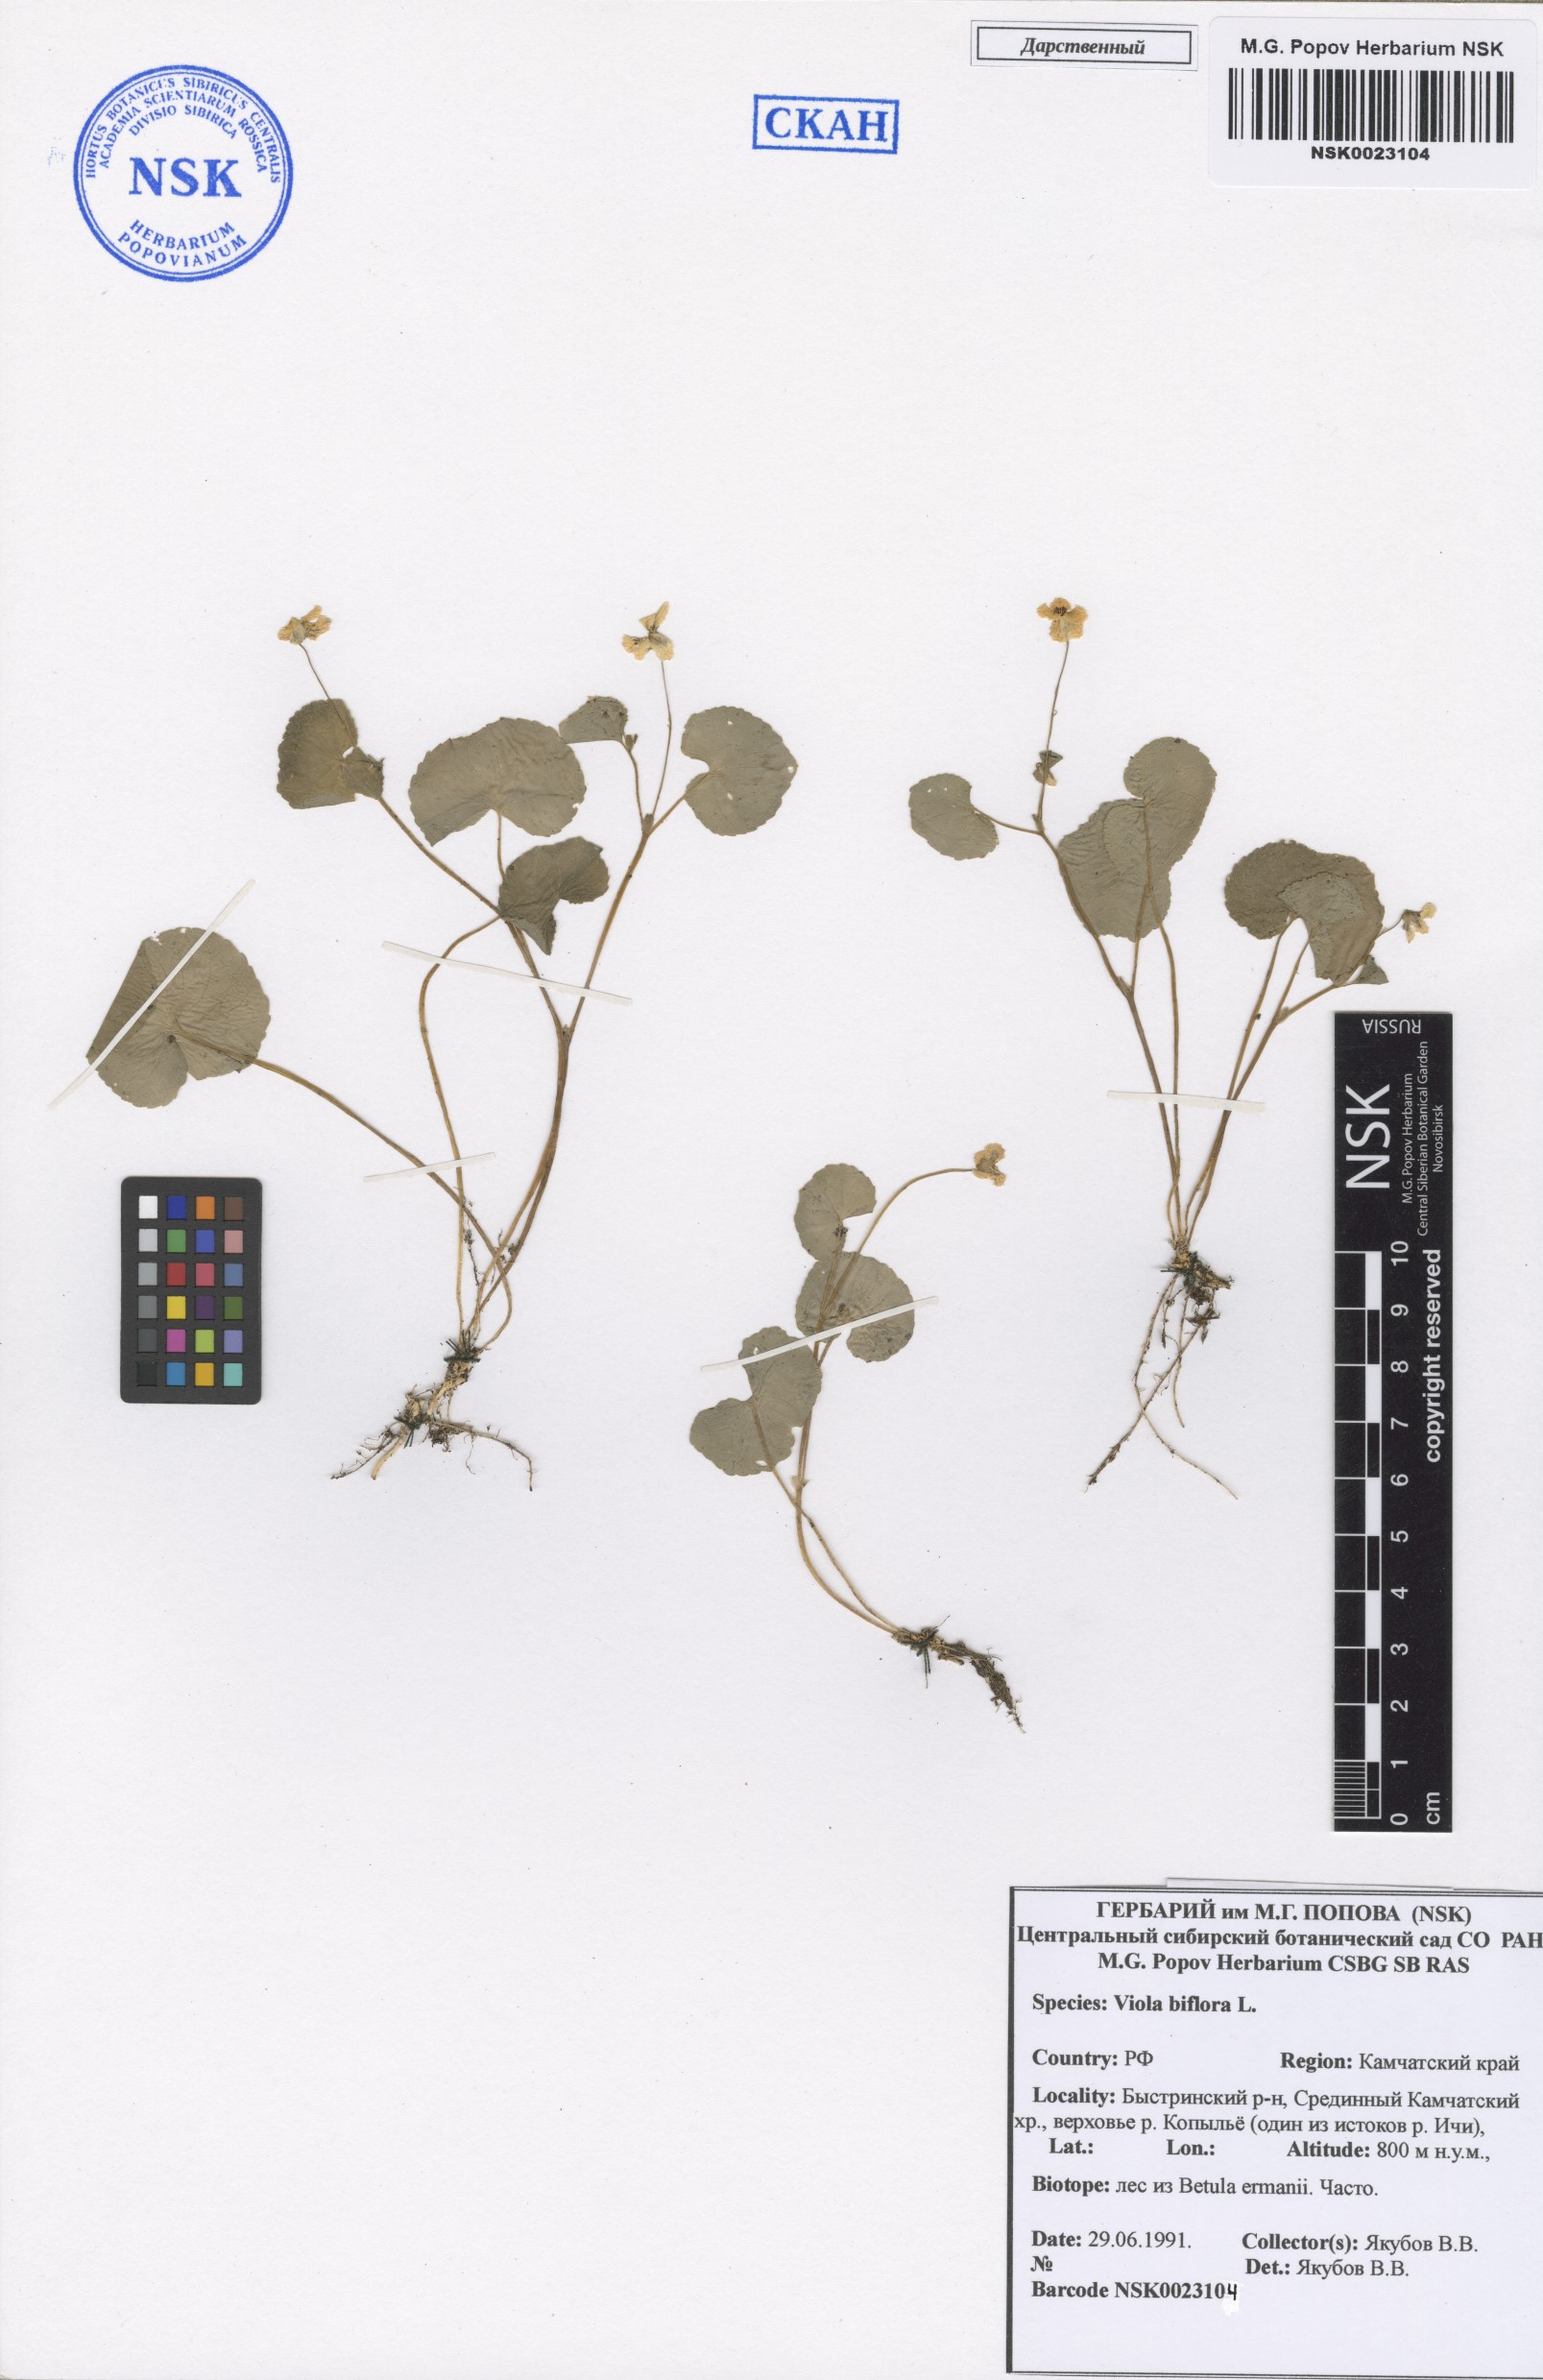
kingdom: Plantae
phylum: Tracheophyta
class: Magnoliopsida
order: Malpighiales
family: Violaceae
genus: Viola
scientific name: Viola biflora
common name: Alpine yellow violet
